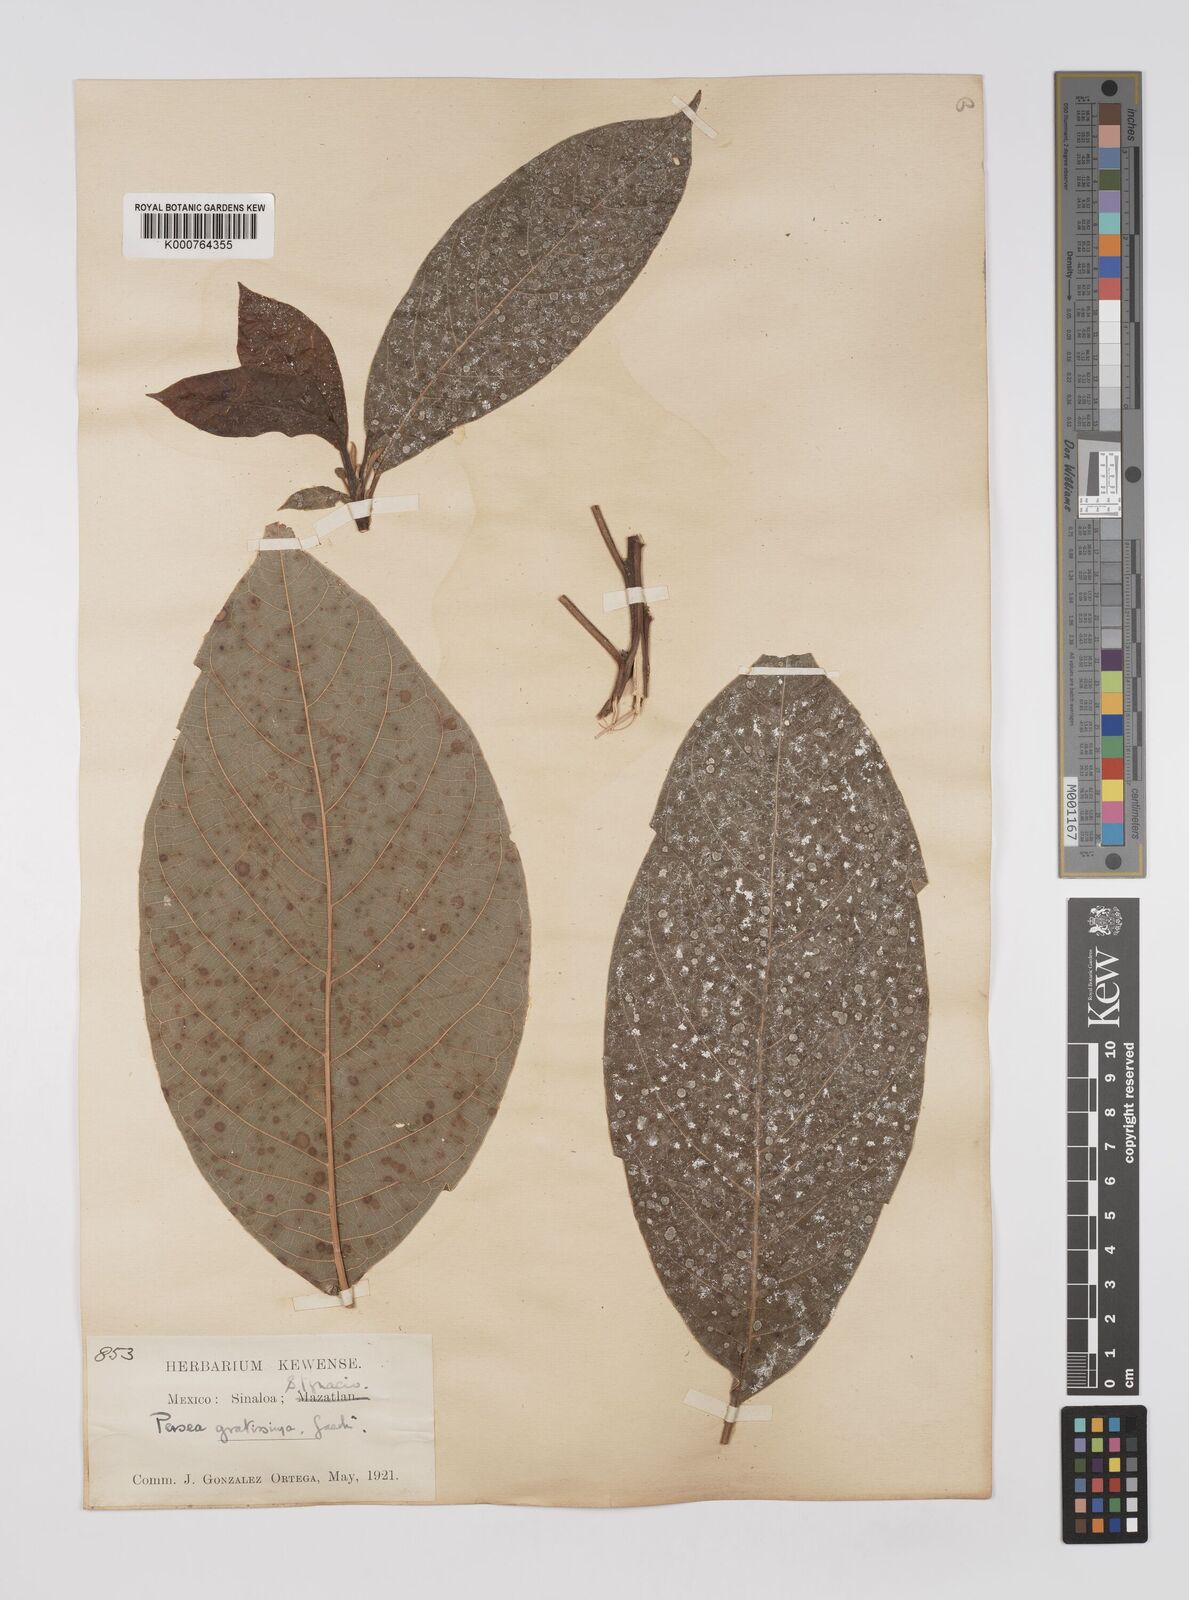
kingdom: Plantae
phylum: Tracheophyta
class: Magnoliopsida
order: Laurales
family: Lauraceae
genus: Persea
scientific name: Persea americana
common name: Avocado
